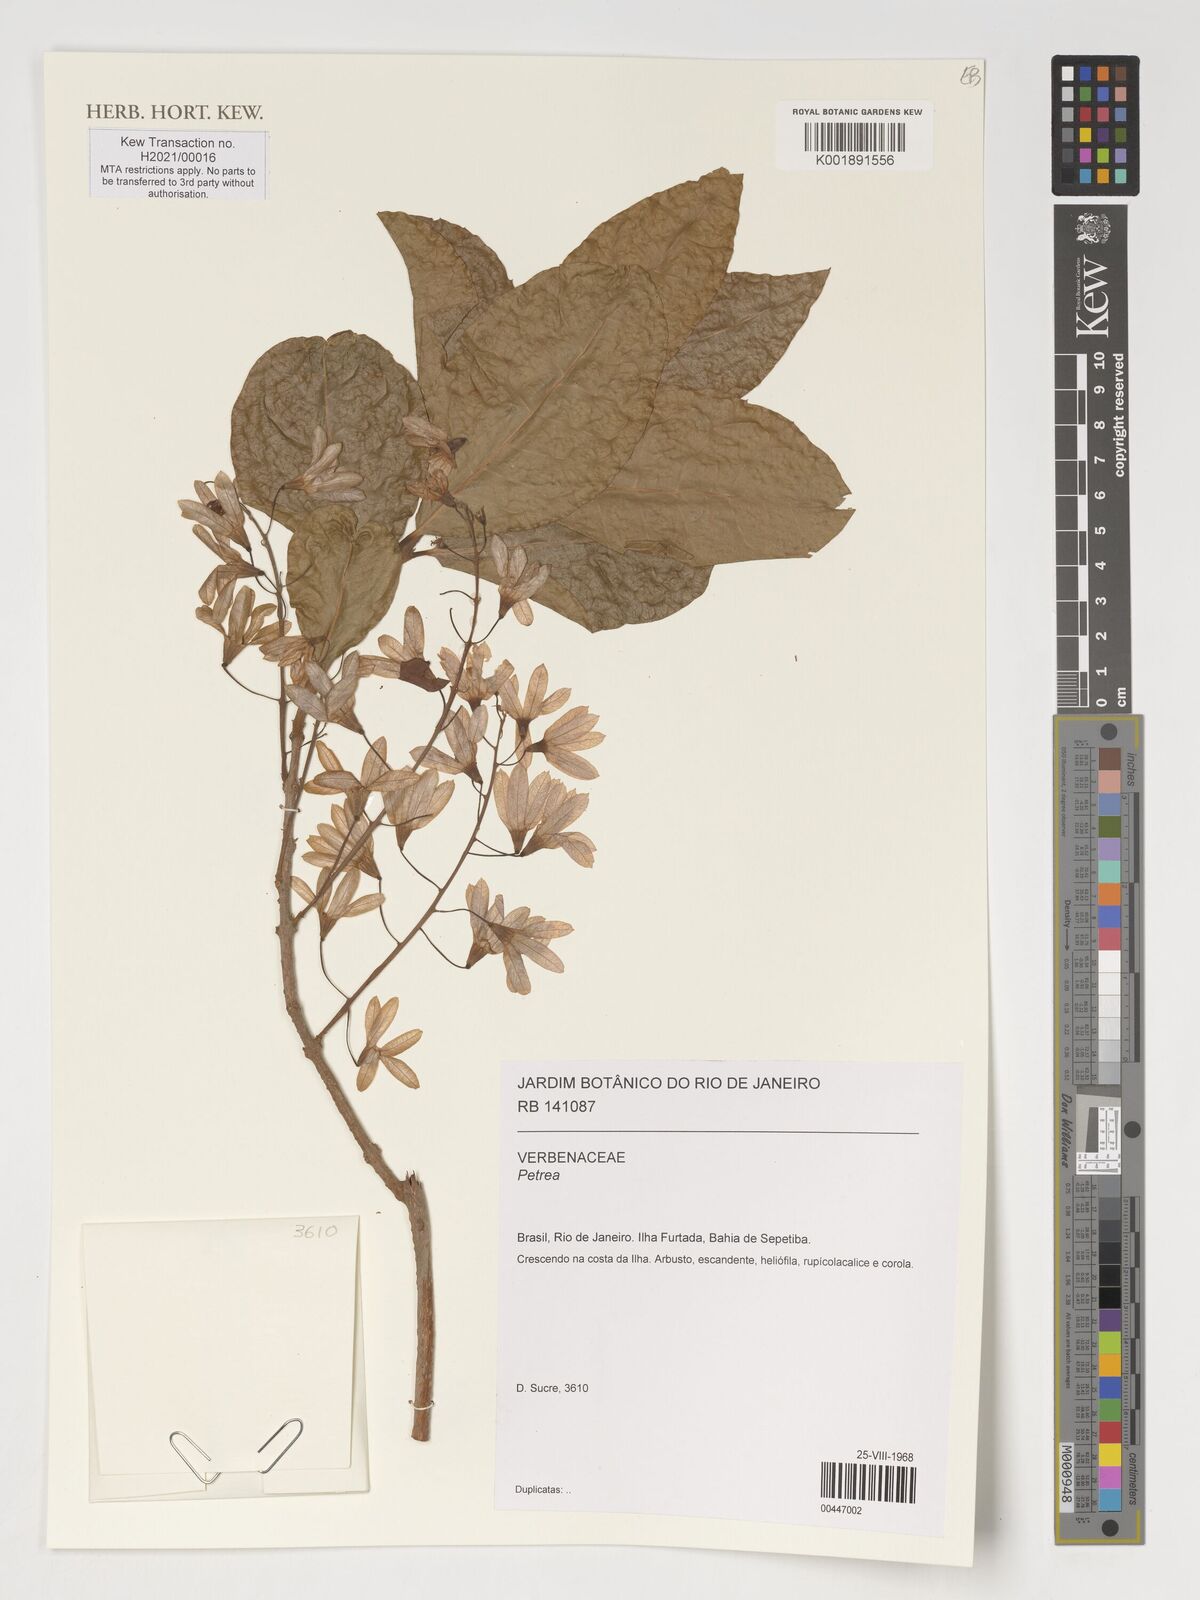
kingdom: Plantae
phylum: Tracheophyta
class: Magnoliopsida
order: Lamiales
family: Verbenaceae
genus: Petrea
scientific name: Petrea
